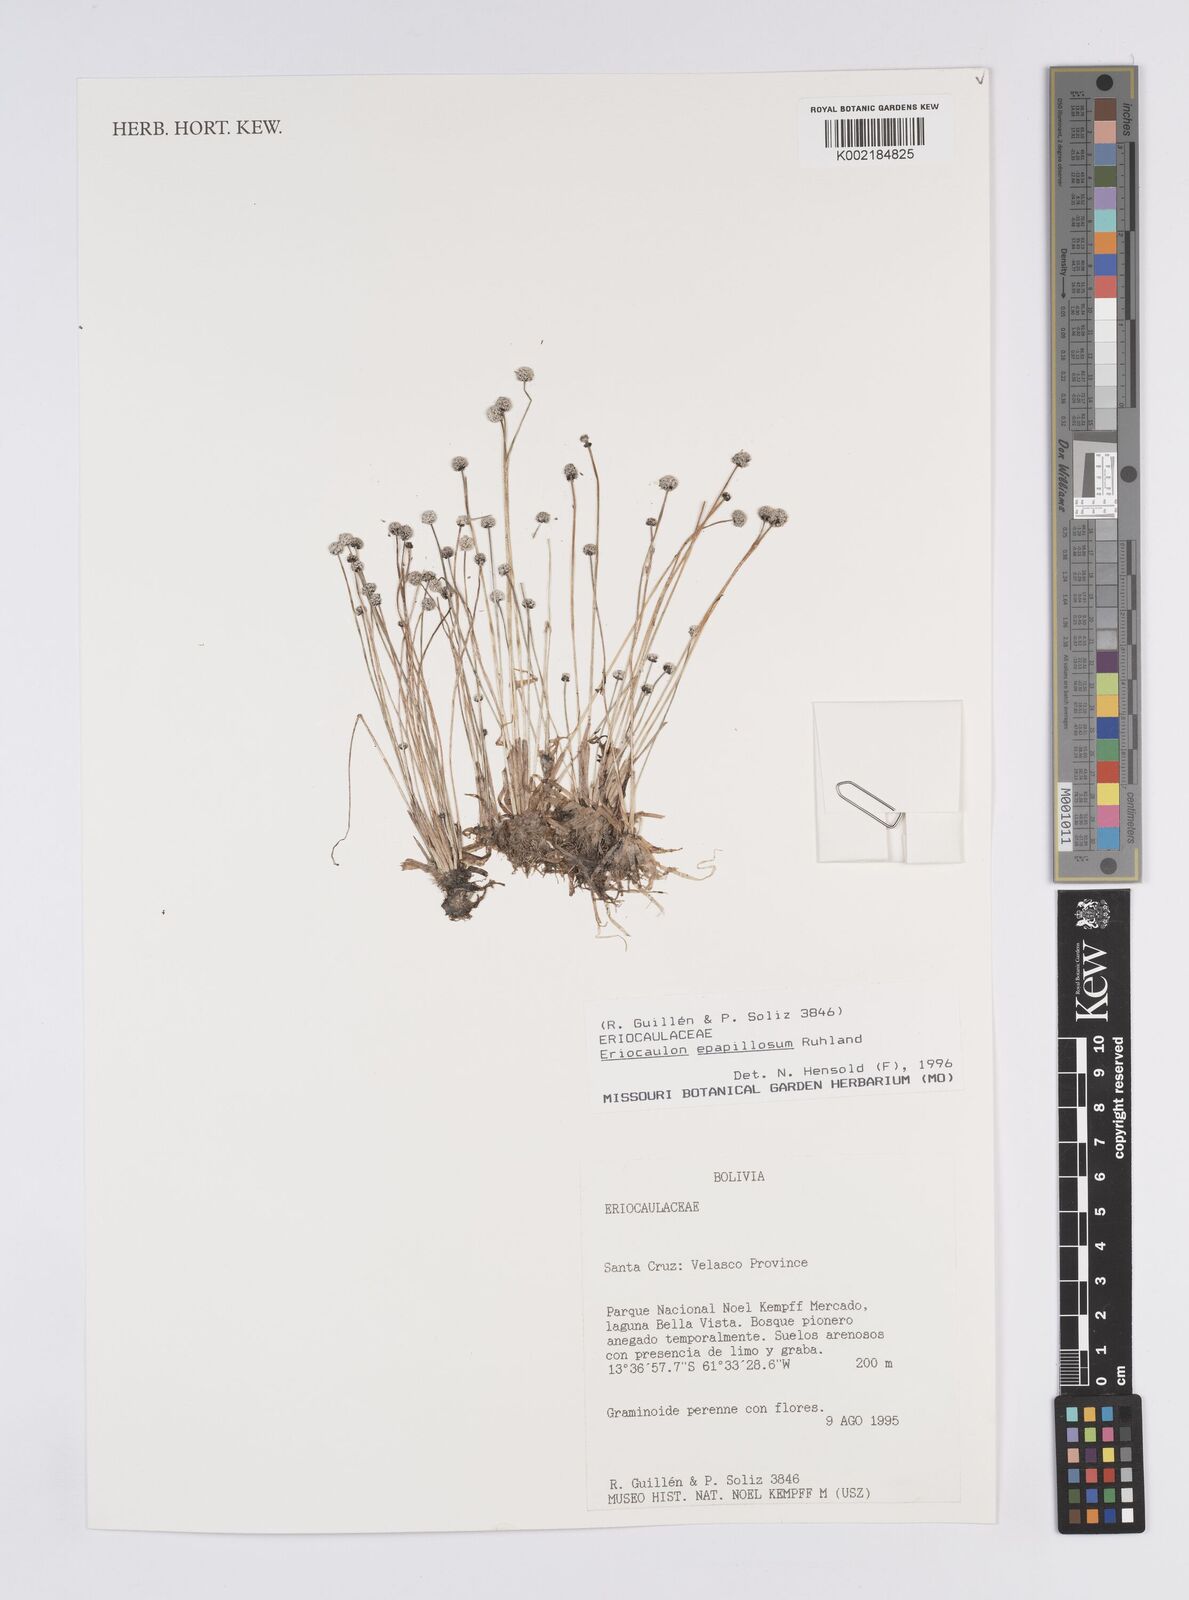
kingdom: Plantae
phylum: Tracheophyta
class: Liliopsida
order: Poales
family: Eriocaulaceae
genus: Eriocaulon
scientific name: Eriocaulon epapillosum
